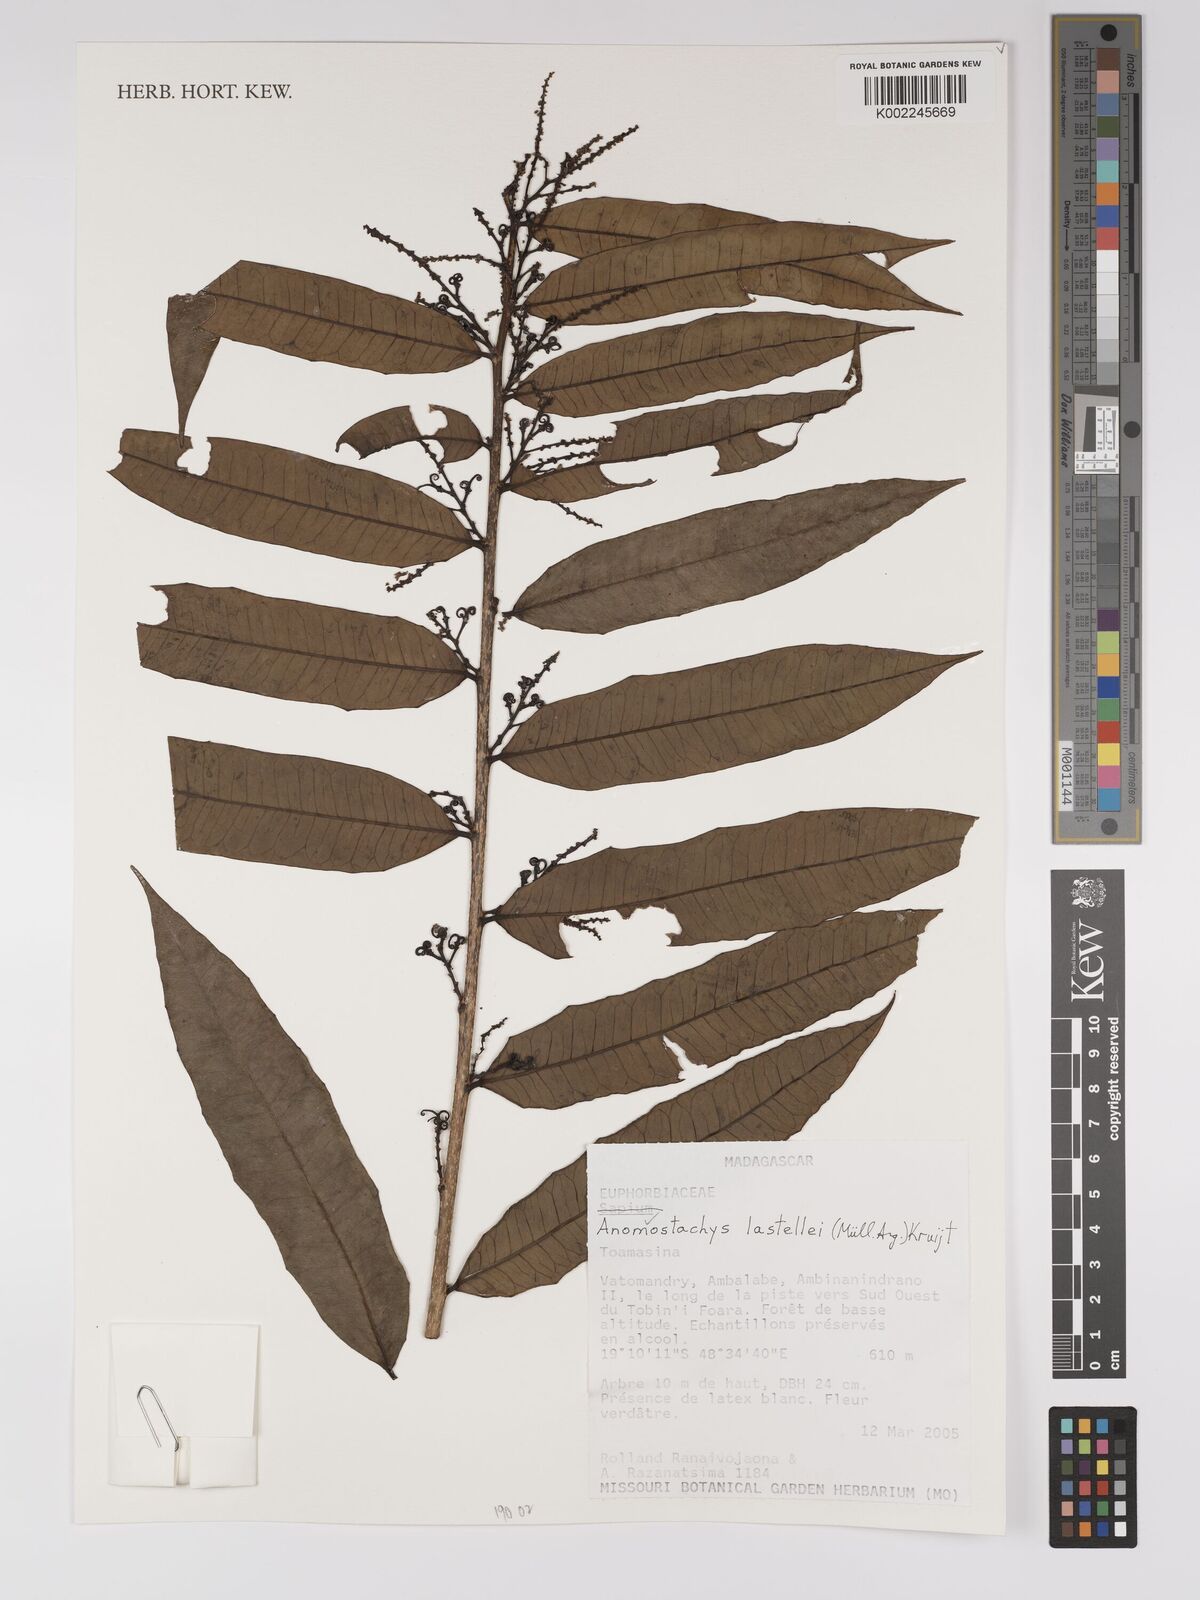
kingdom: Plantae
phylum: Tracheophyta
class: Magnoliopsida
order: Malpighiales
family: Euphorbiaceae
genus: Anomostachys
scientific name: Anomostachys lastellei
